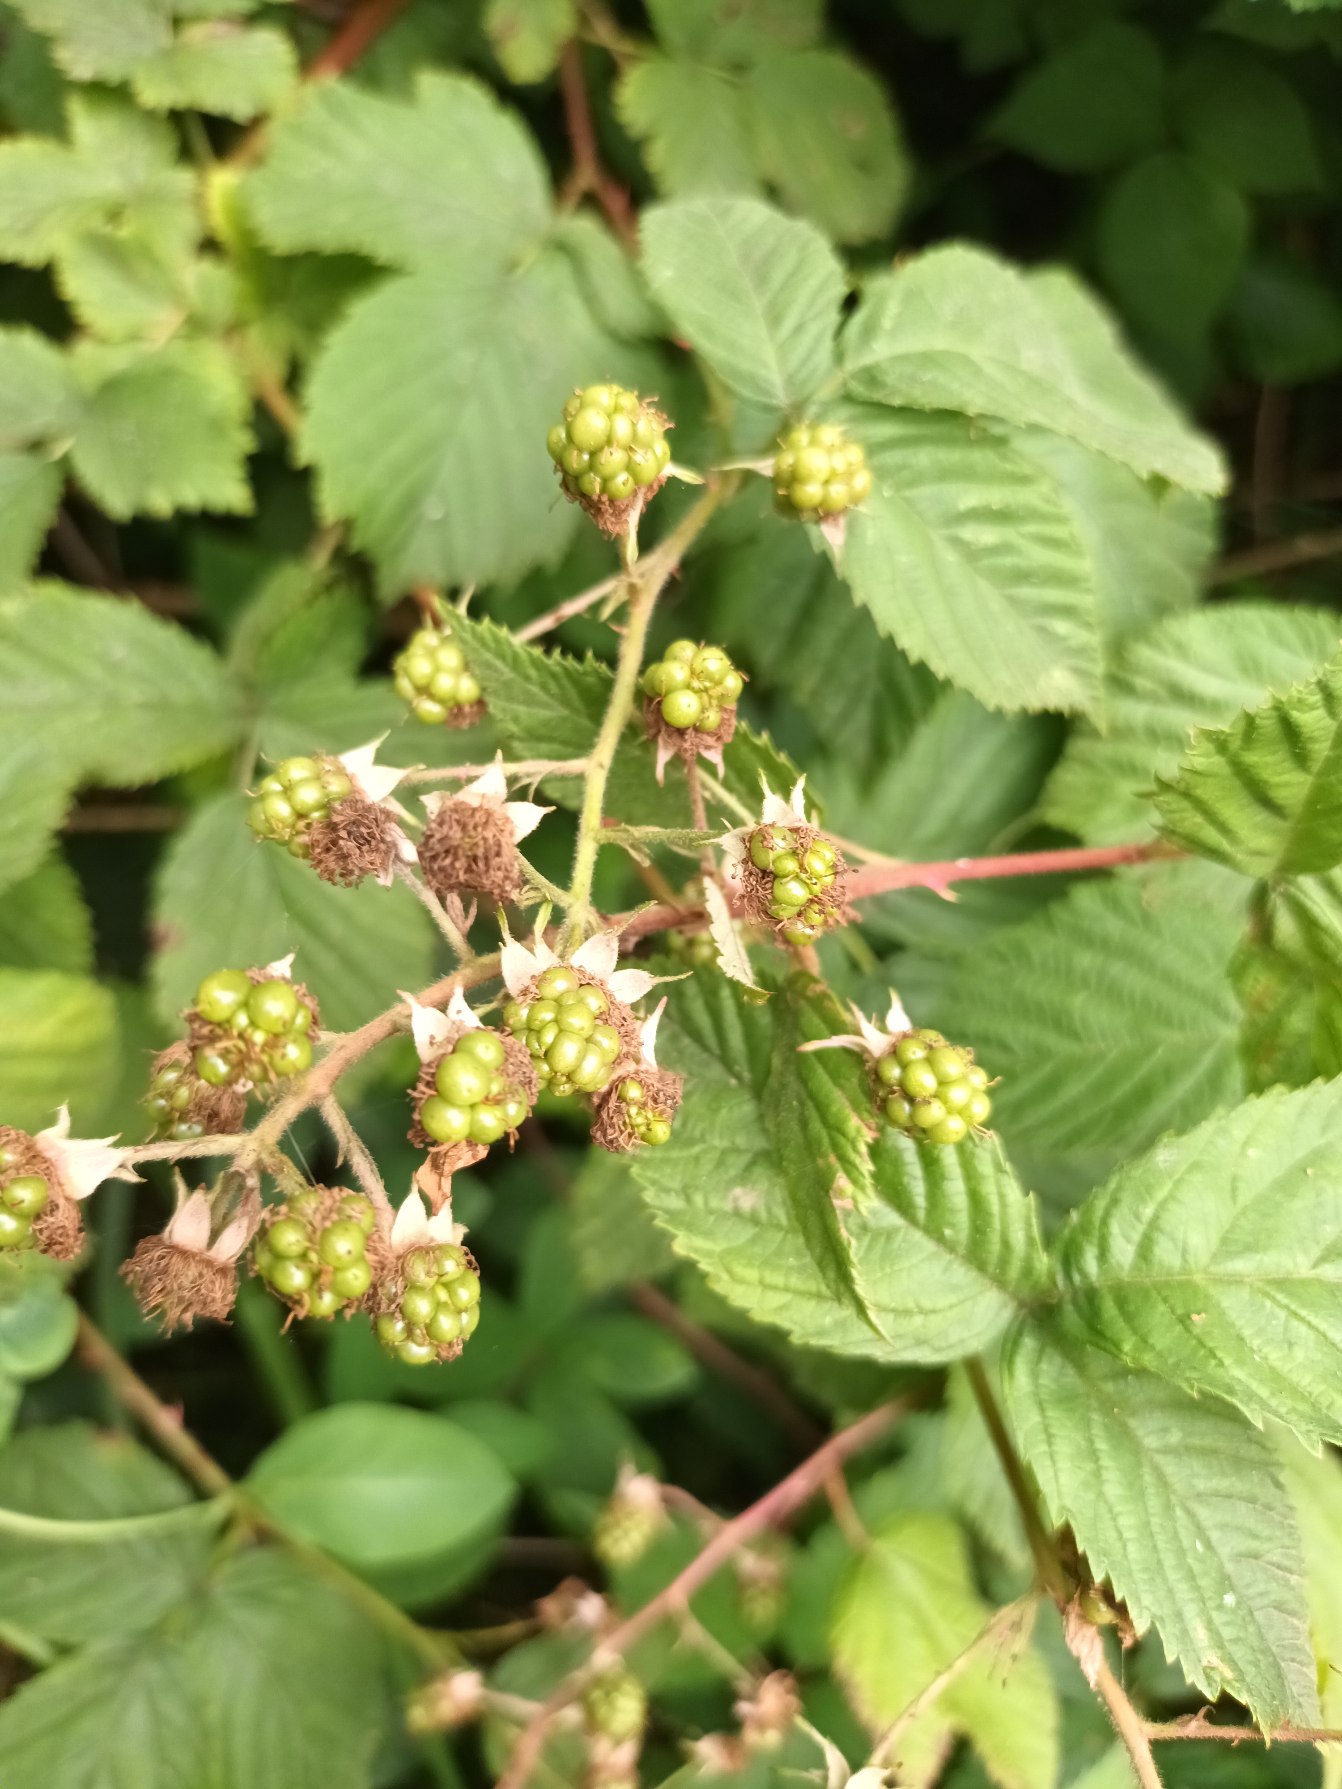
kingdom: Plantae
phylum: Tracheophyta
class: Magnoliopsida
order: Rosales
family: Rosaceae
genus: Rubus
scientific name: Rubus plicatus
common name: Almindelig brombær
